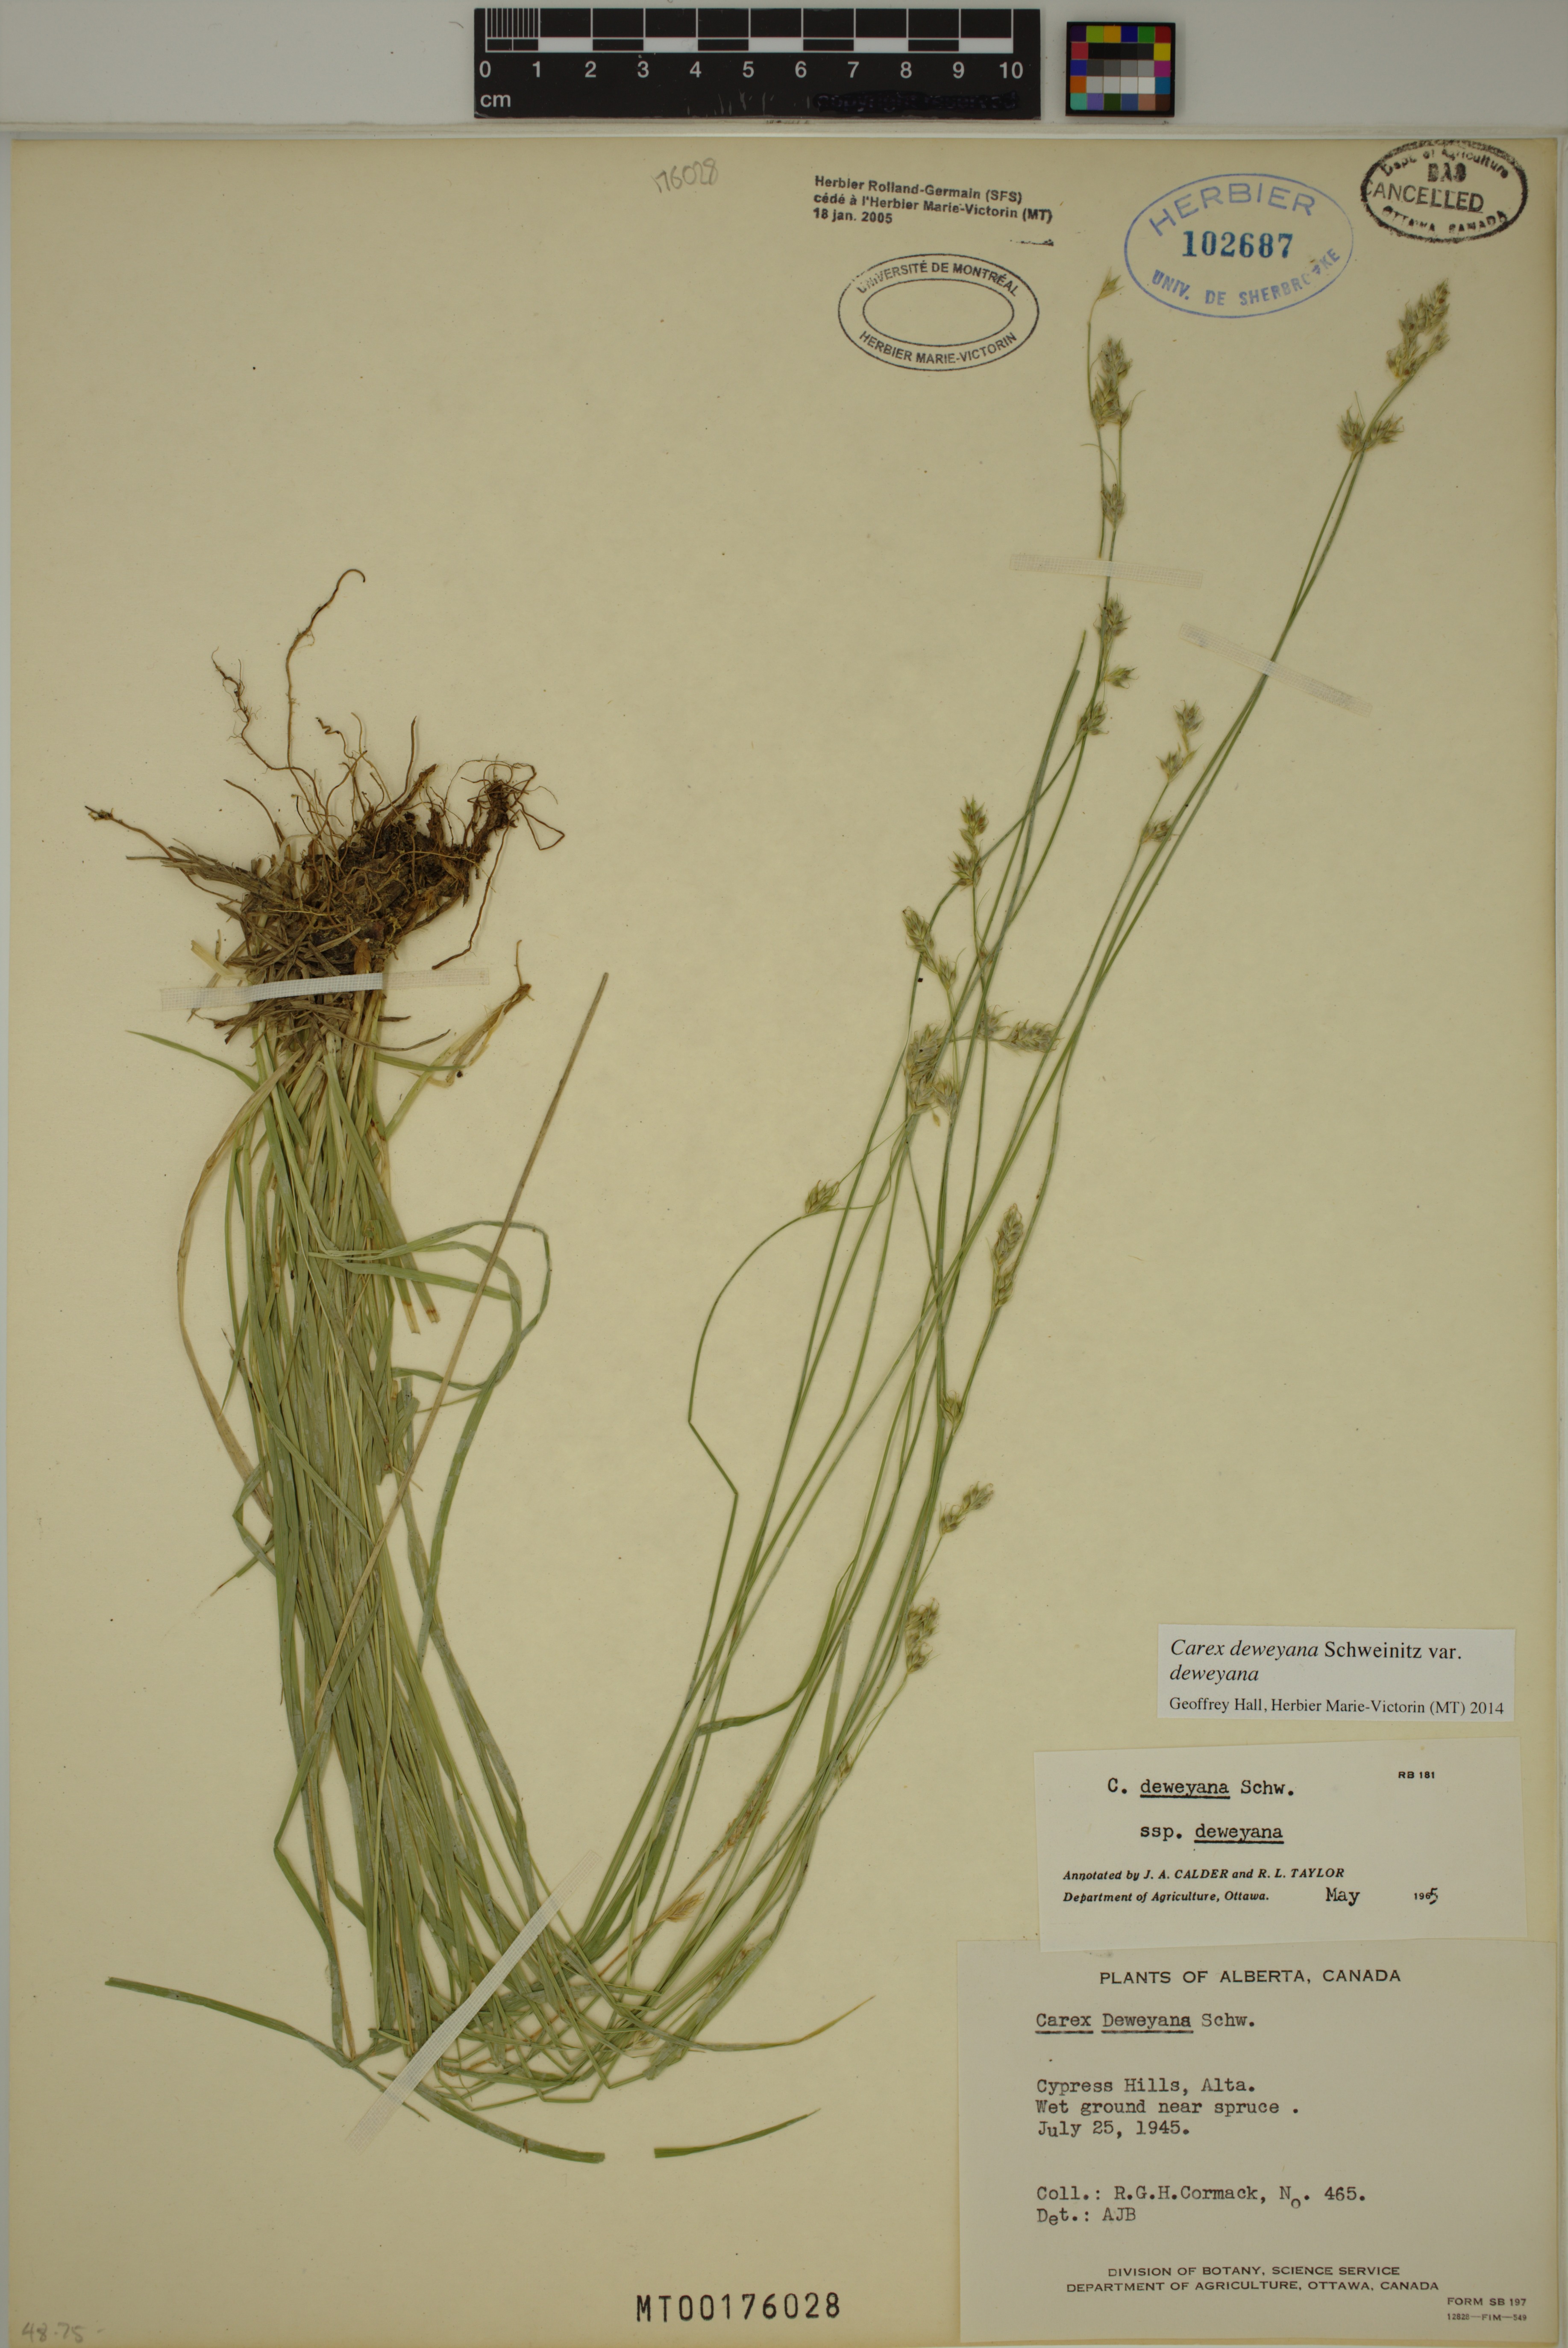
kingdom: Plantae
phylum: Tracheophyta
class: Liliopsida
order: Poales
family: Cyperaceae
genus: Carex
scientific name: Carex deweyana
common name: Dewey's sedge
